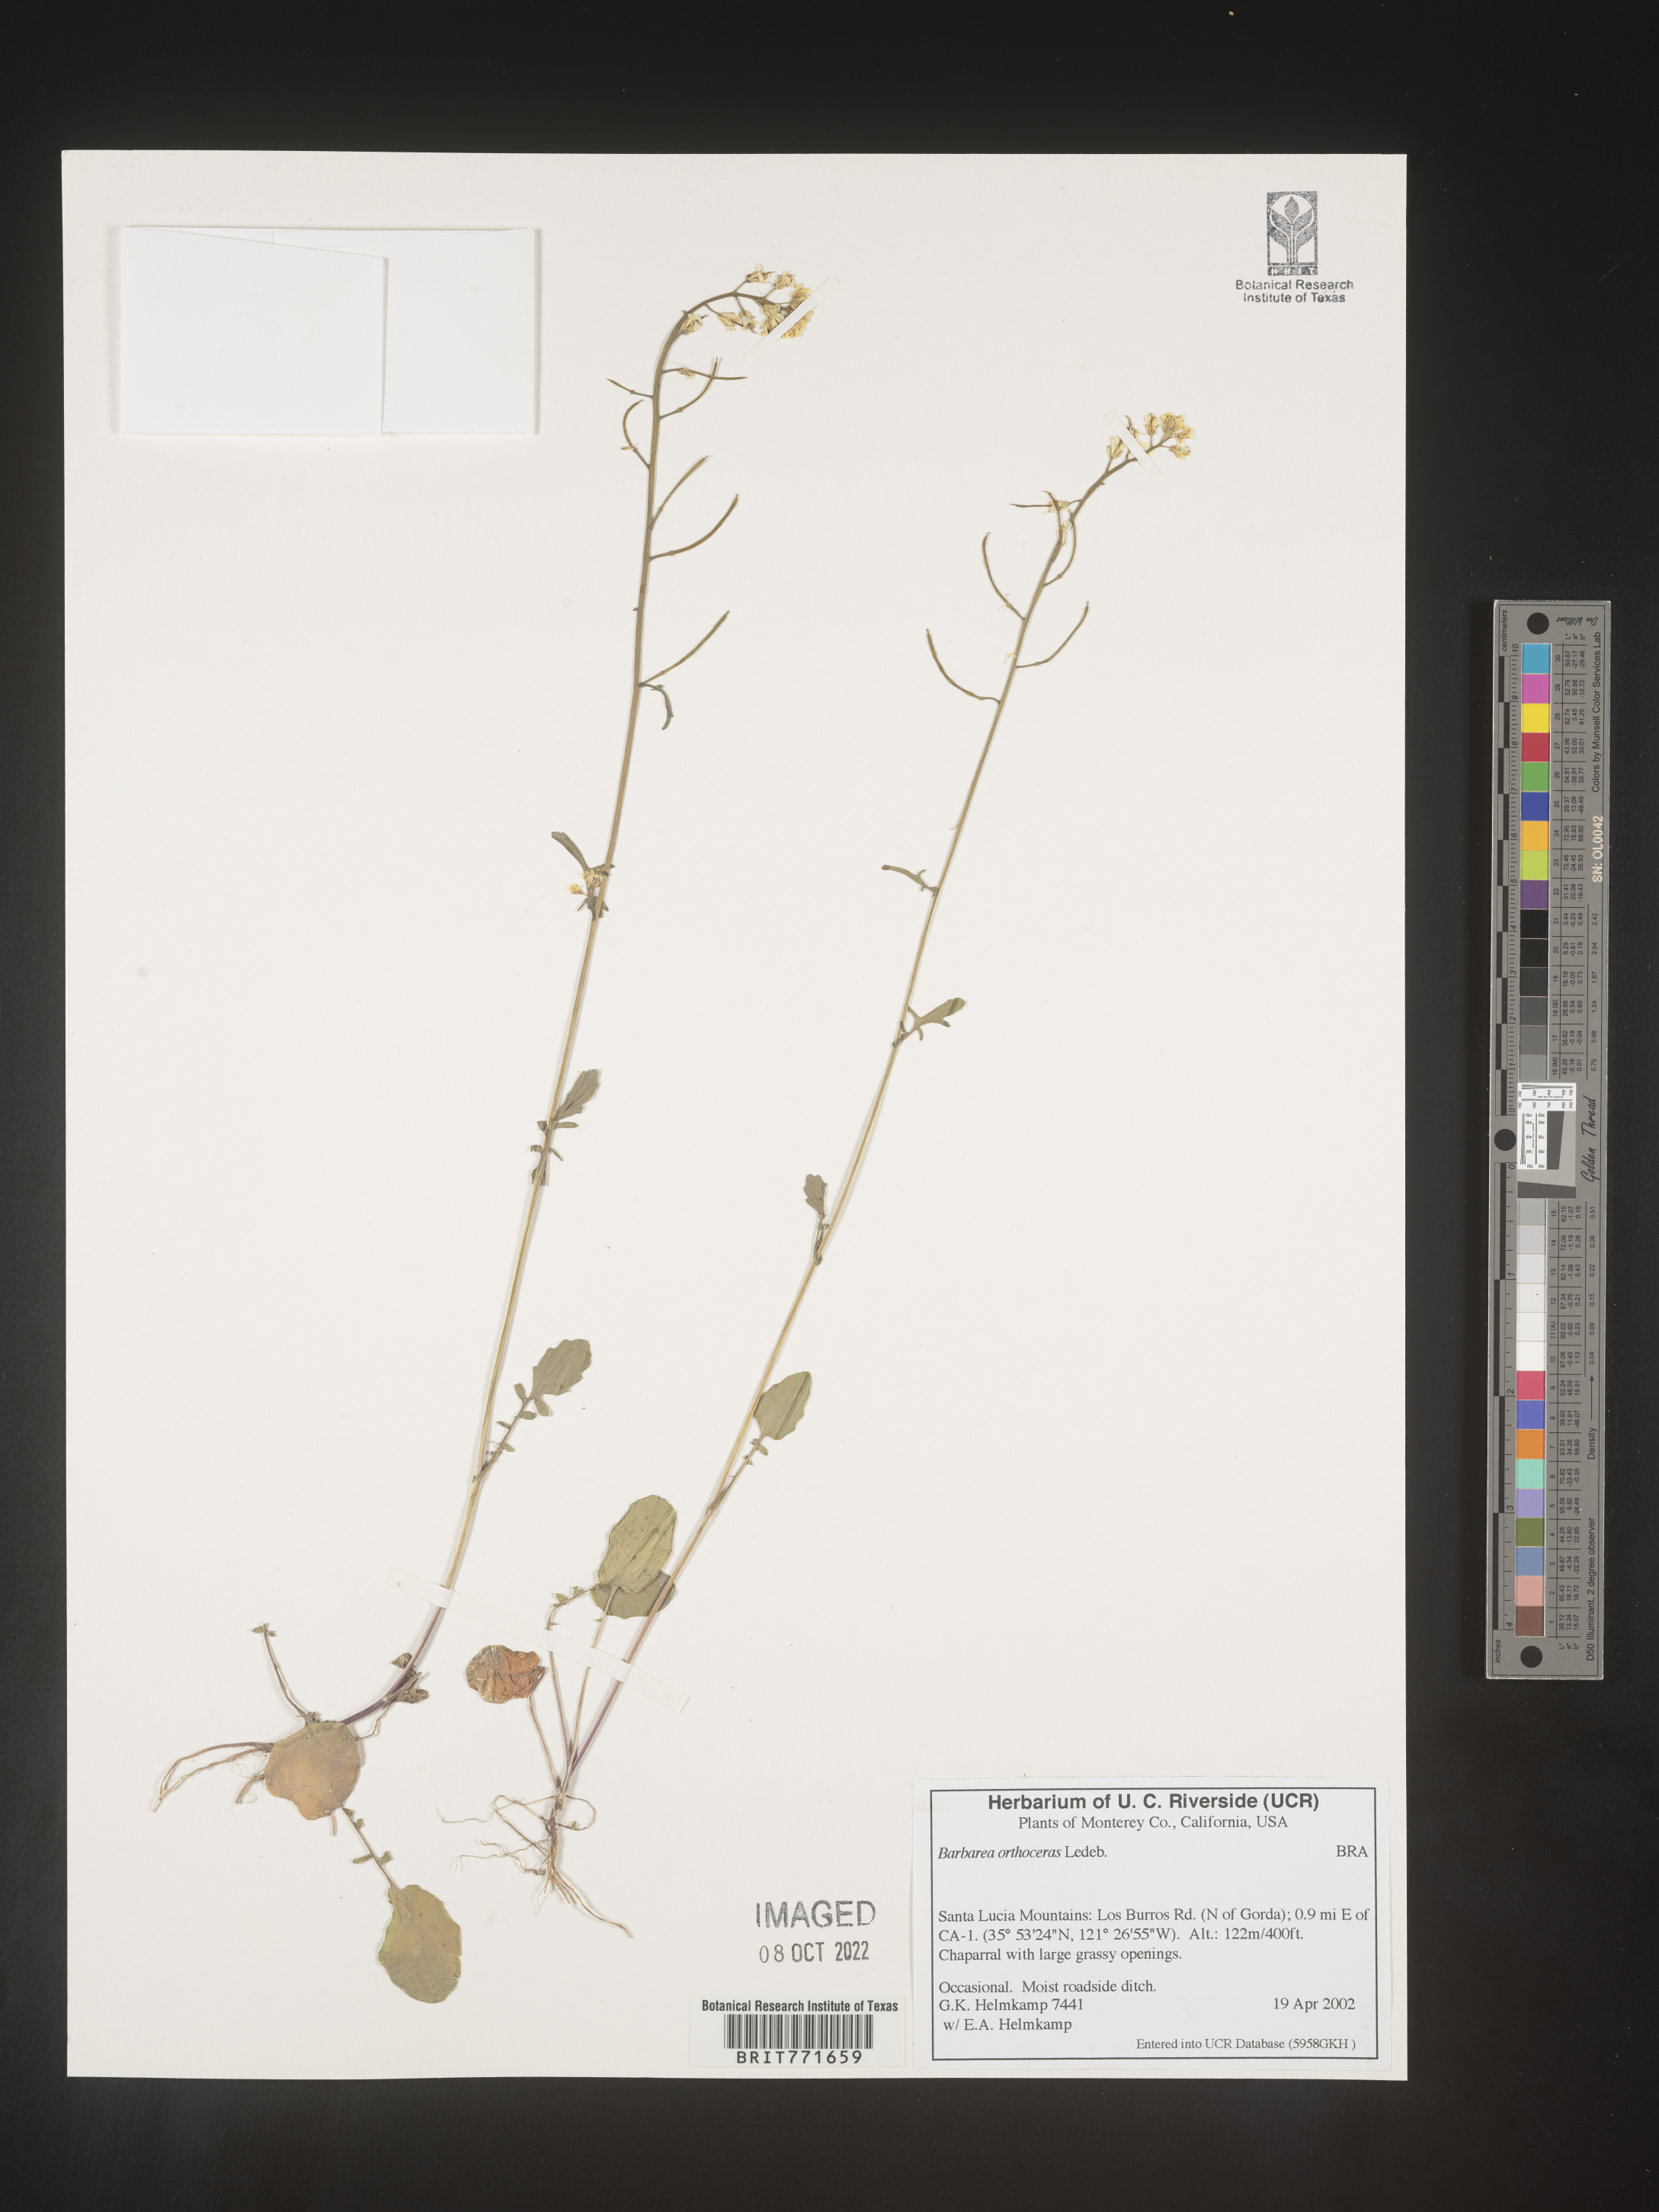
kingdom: Plantae
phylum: Tracheophyta
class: Magnoliopsida
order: Brassicales
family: Brassicaceae
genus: Barbarea
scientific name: Barbarea
